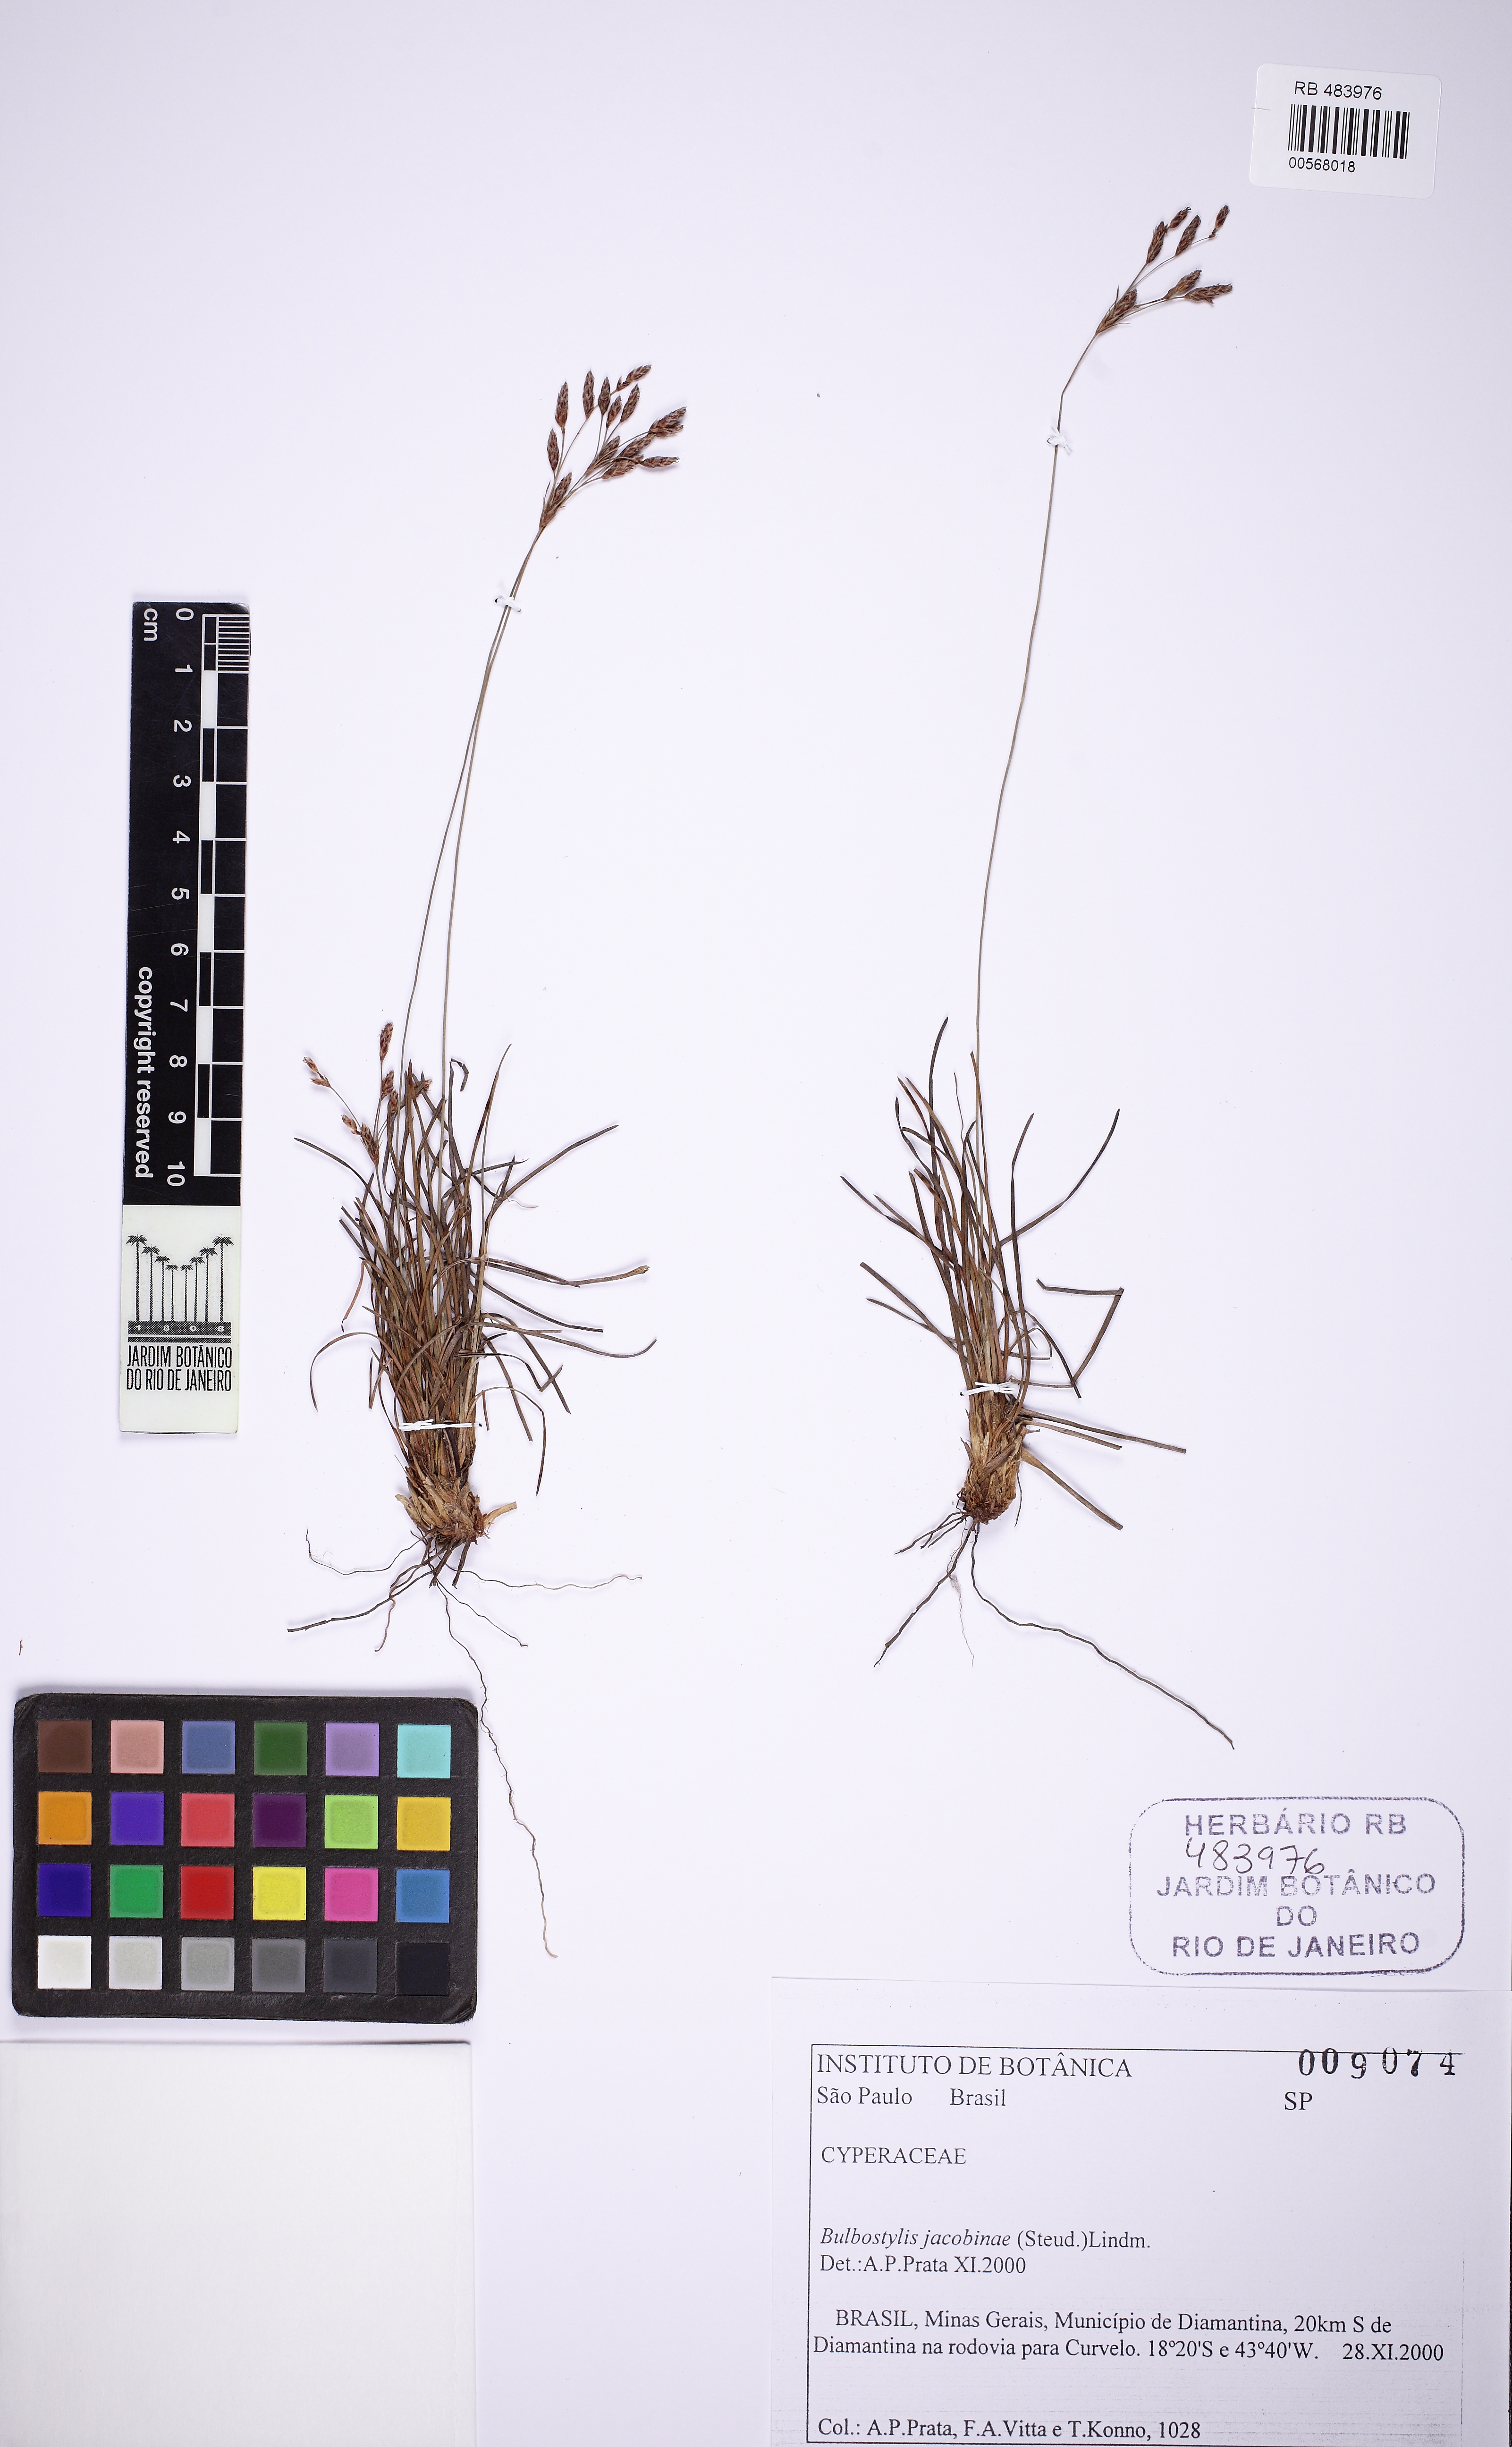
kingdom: Plantae
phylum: Tracheophyta
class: Liliopsida
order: Poales
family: Cyperaceae
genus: Bulbostylis
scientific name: Bulbostylis jacobinae
